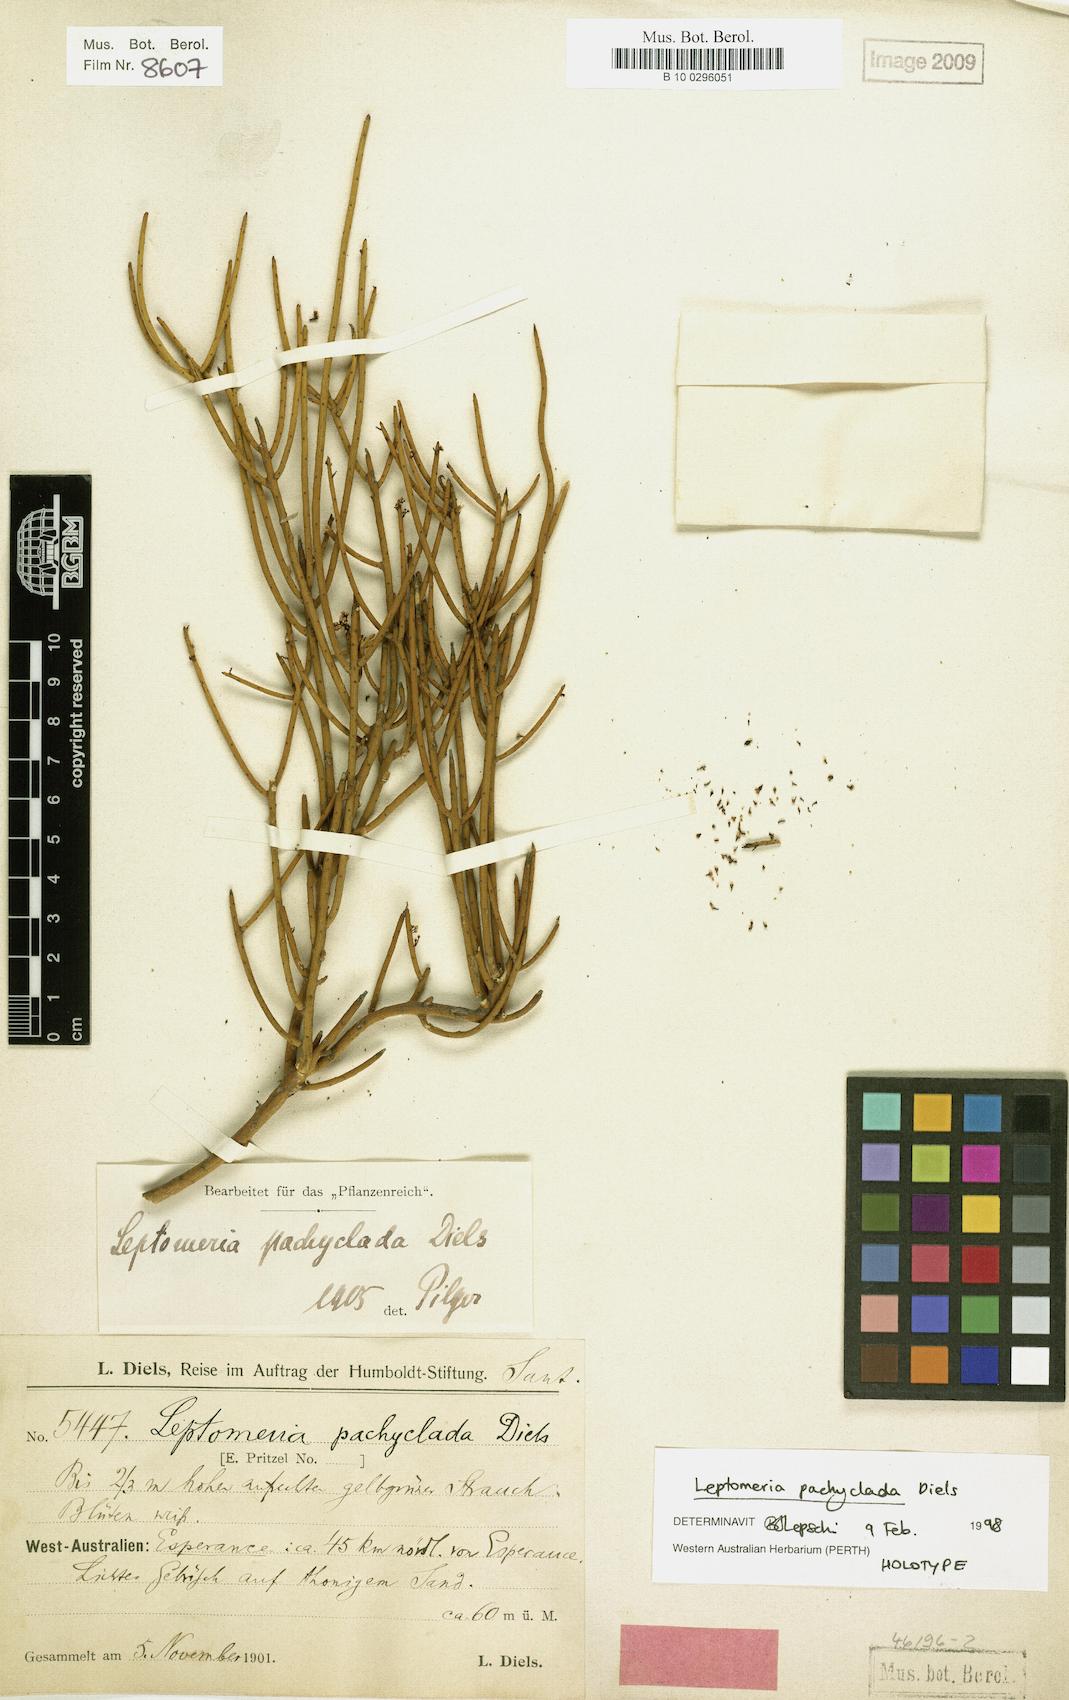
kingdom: Plantae
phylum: Tracheophyta
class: Magnoliopsida
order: Santalales
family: Amphorogynaceae
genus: Leptomeria
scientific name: Leptomeria pachyclada
